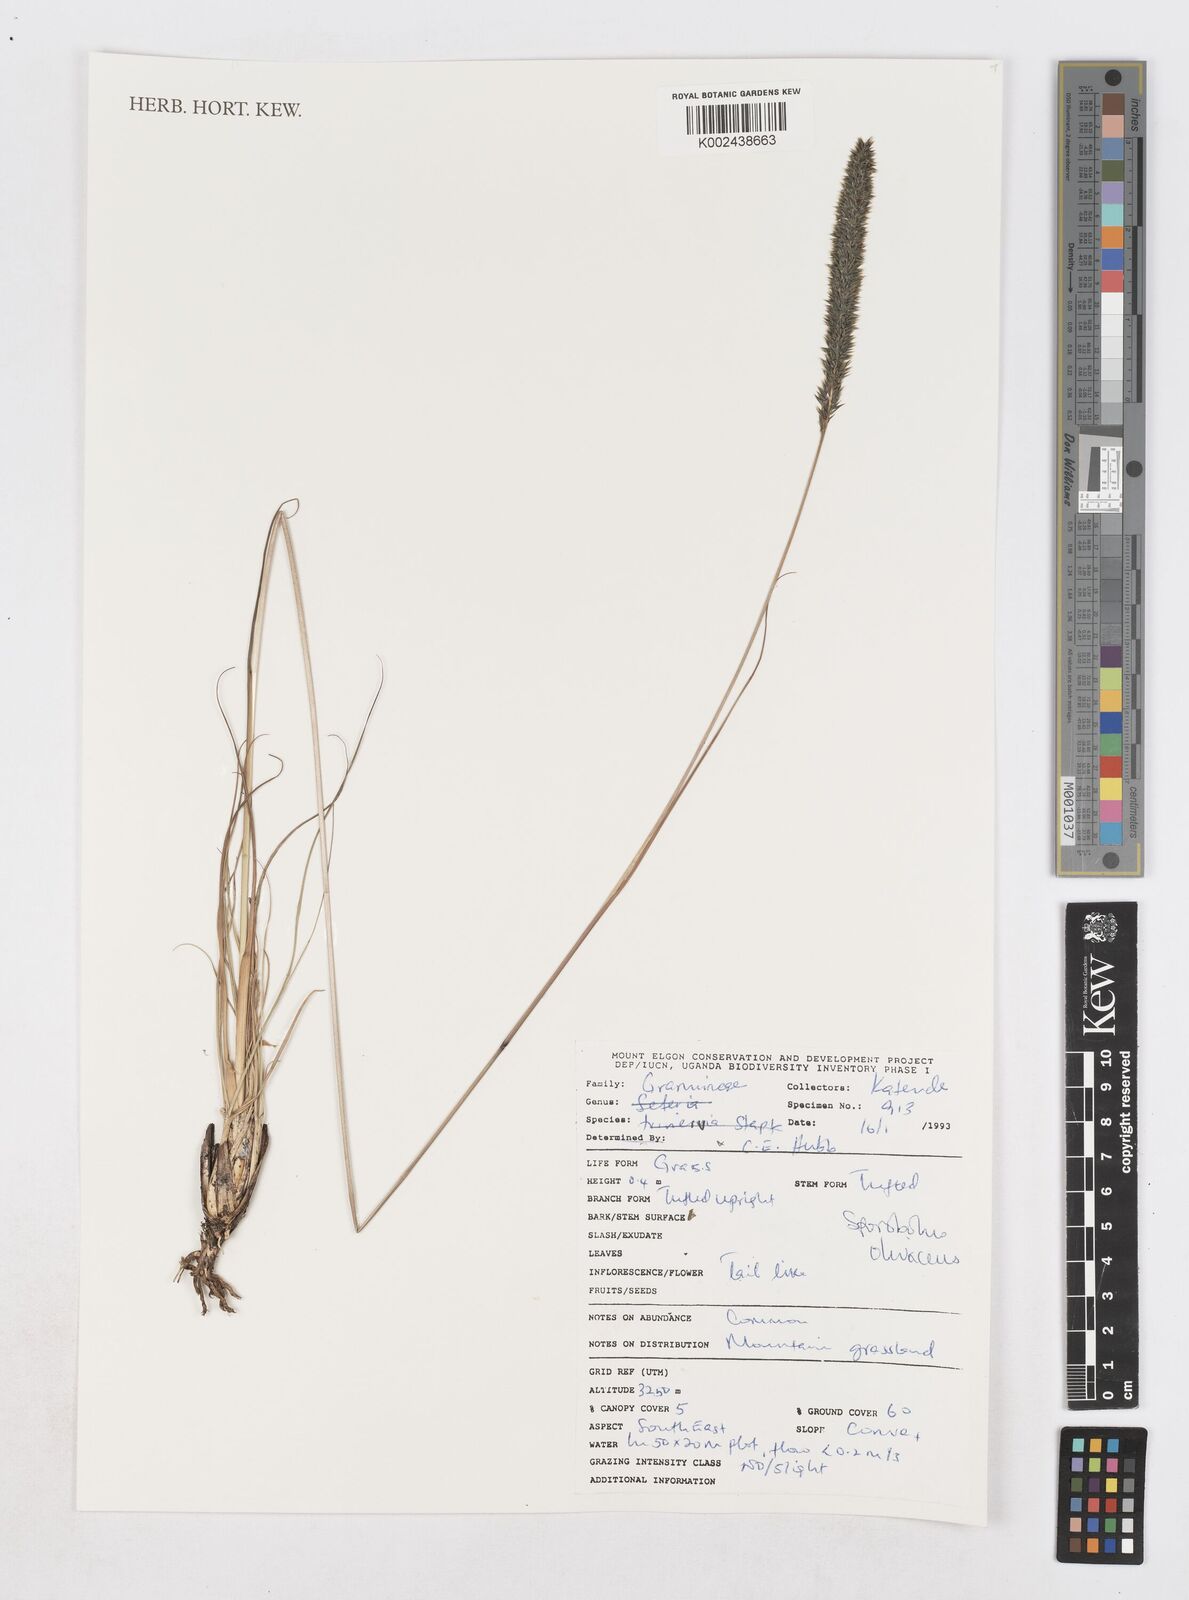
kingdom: Plantae
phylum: Tracheophyta
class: Liliopsida
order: Poales
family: Poaceae
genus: Sporobolus
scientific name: Sporobolus olivaceus
